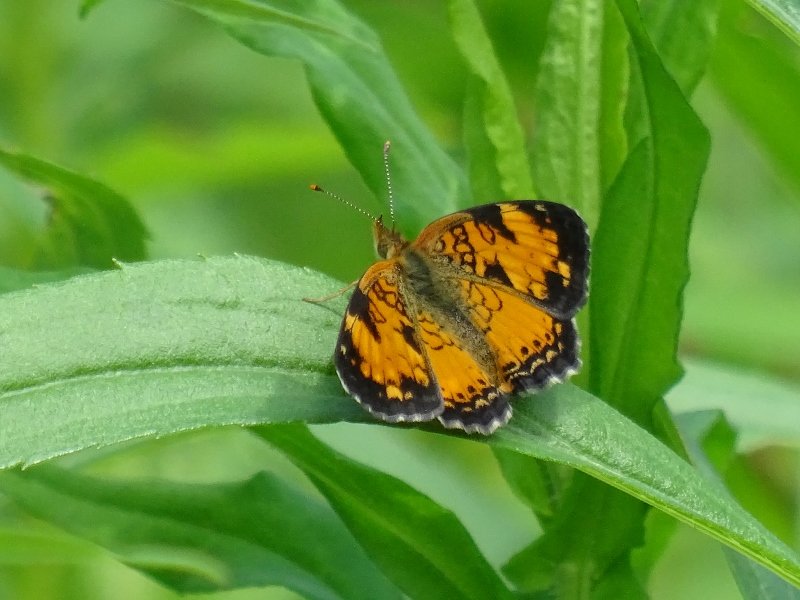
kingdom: Animalia
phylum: Arthropoda
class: Insecta
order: Lepidoptera
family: Nymphalidae
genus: Phyciodes
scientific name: Phyciodes tharos
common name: Northern Crescent
